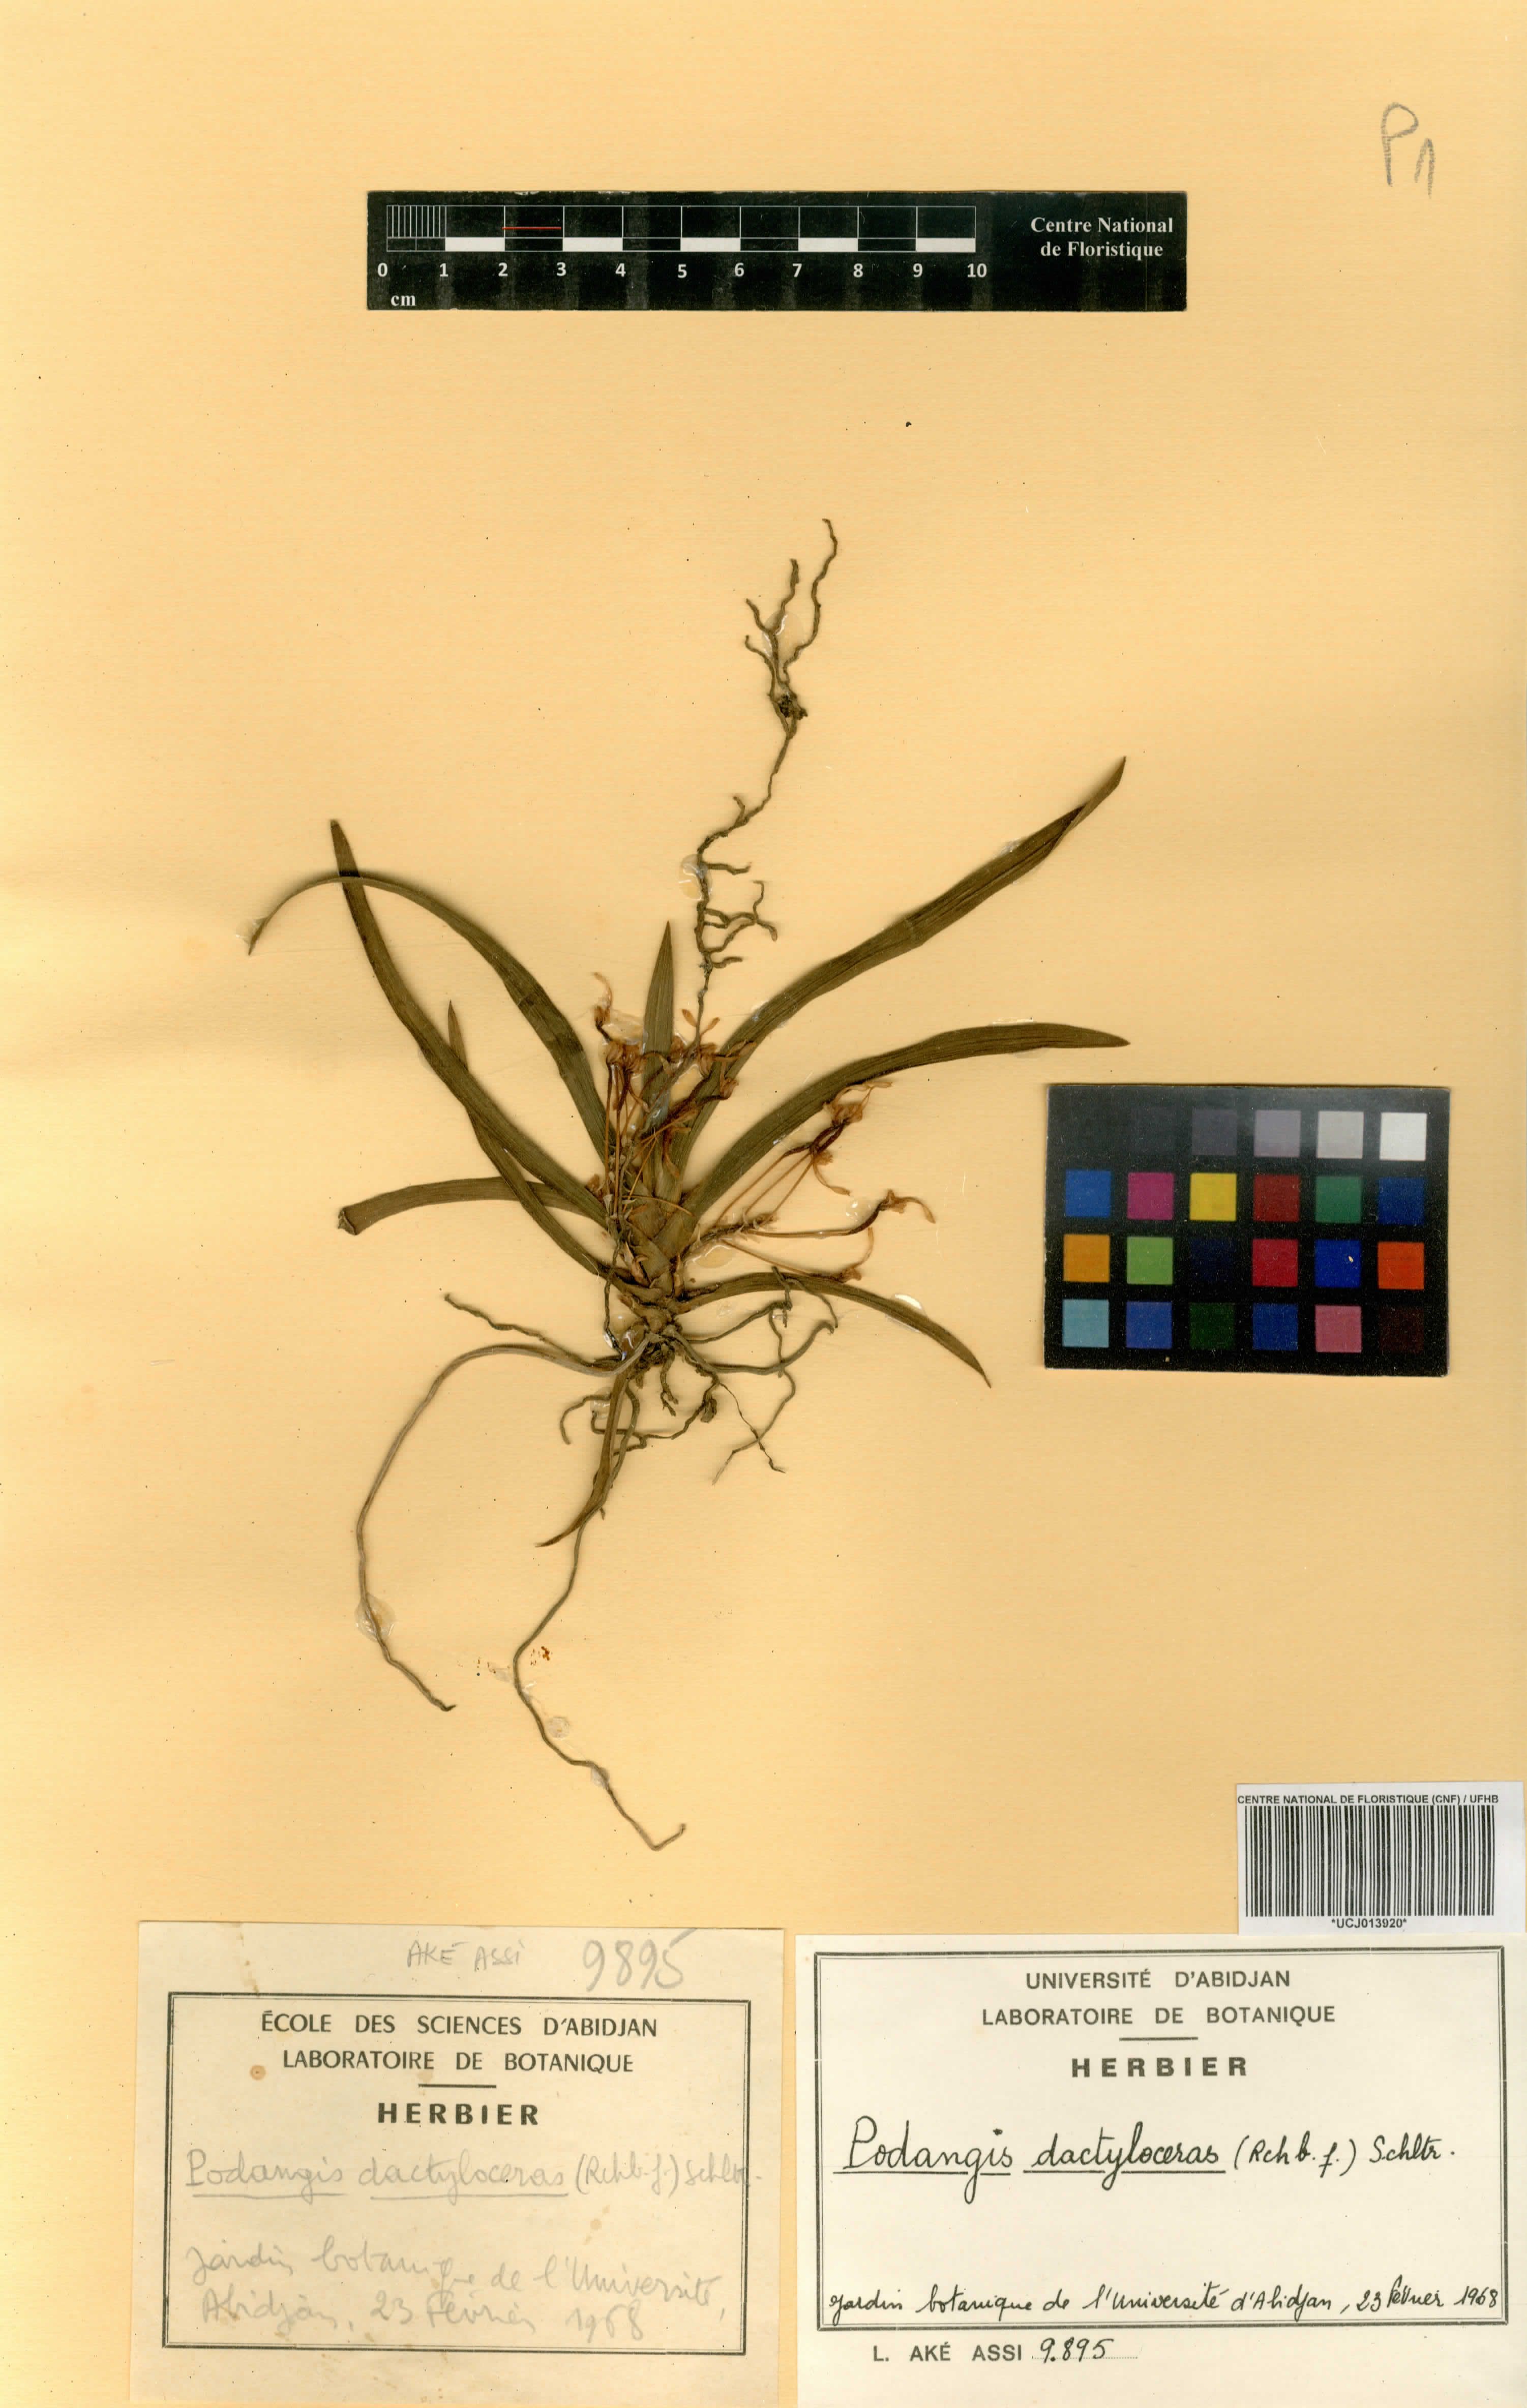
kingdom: Plantae
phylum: Tracheophyta
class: Liliopsida
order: Asparagales
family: Orchidaceae
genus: Podangis
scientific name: Podangis dactyloceras
